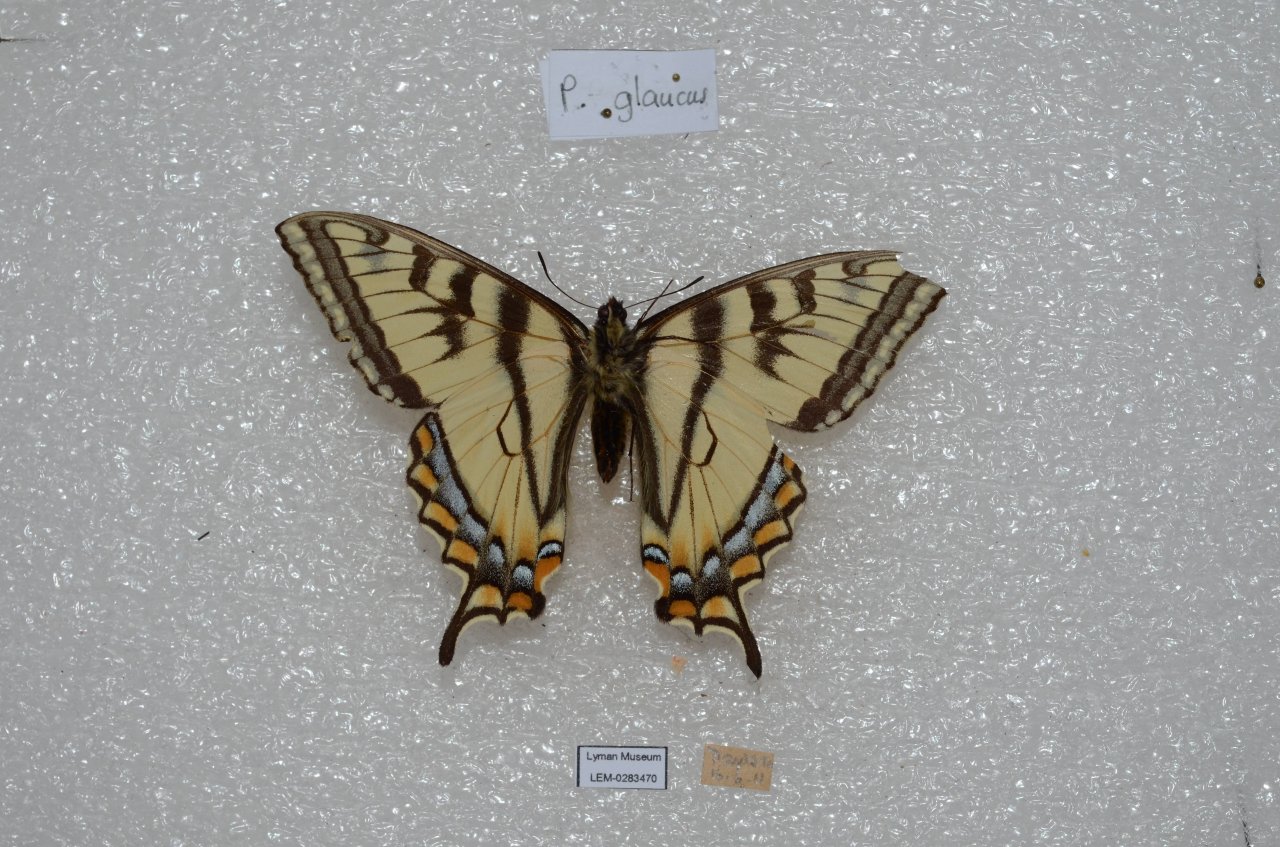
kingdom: Animalia
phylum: Arthropoda
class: Insecta
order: Lepidoptera
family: Papilionidae
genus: Pterourus
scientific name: Pterourus canadensis
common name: Canadian Tiger Swallowtail
